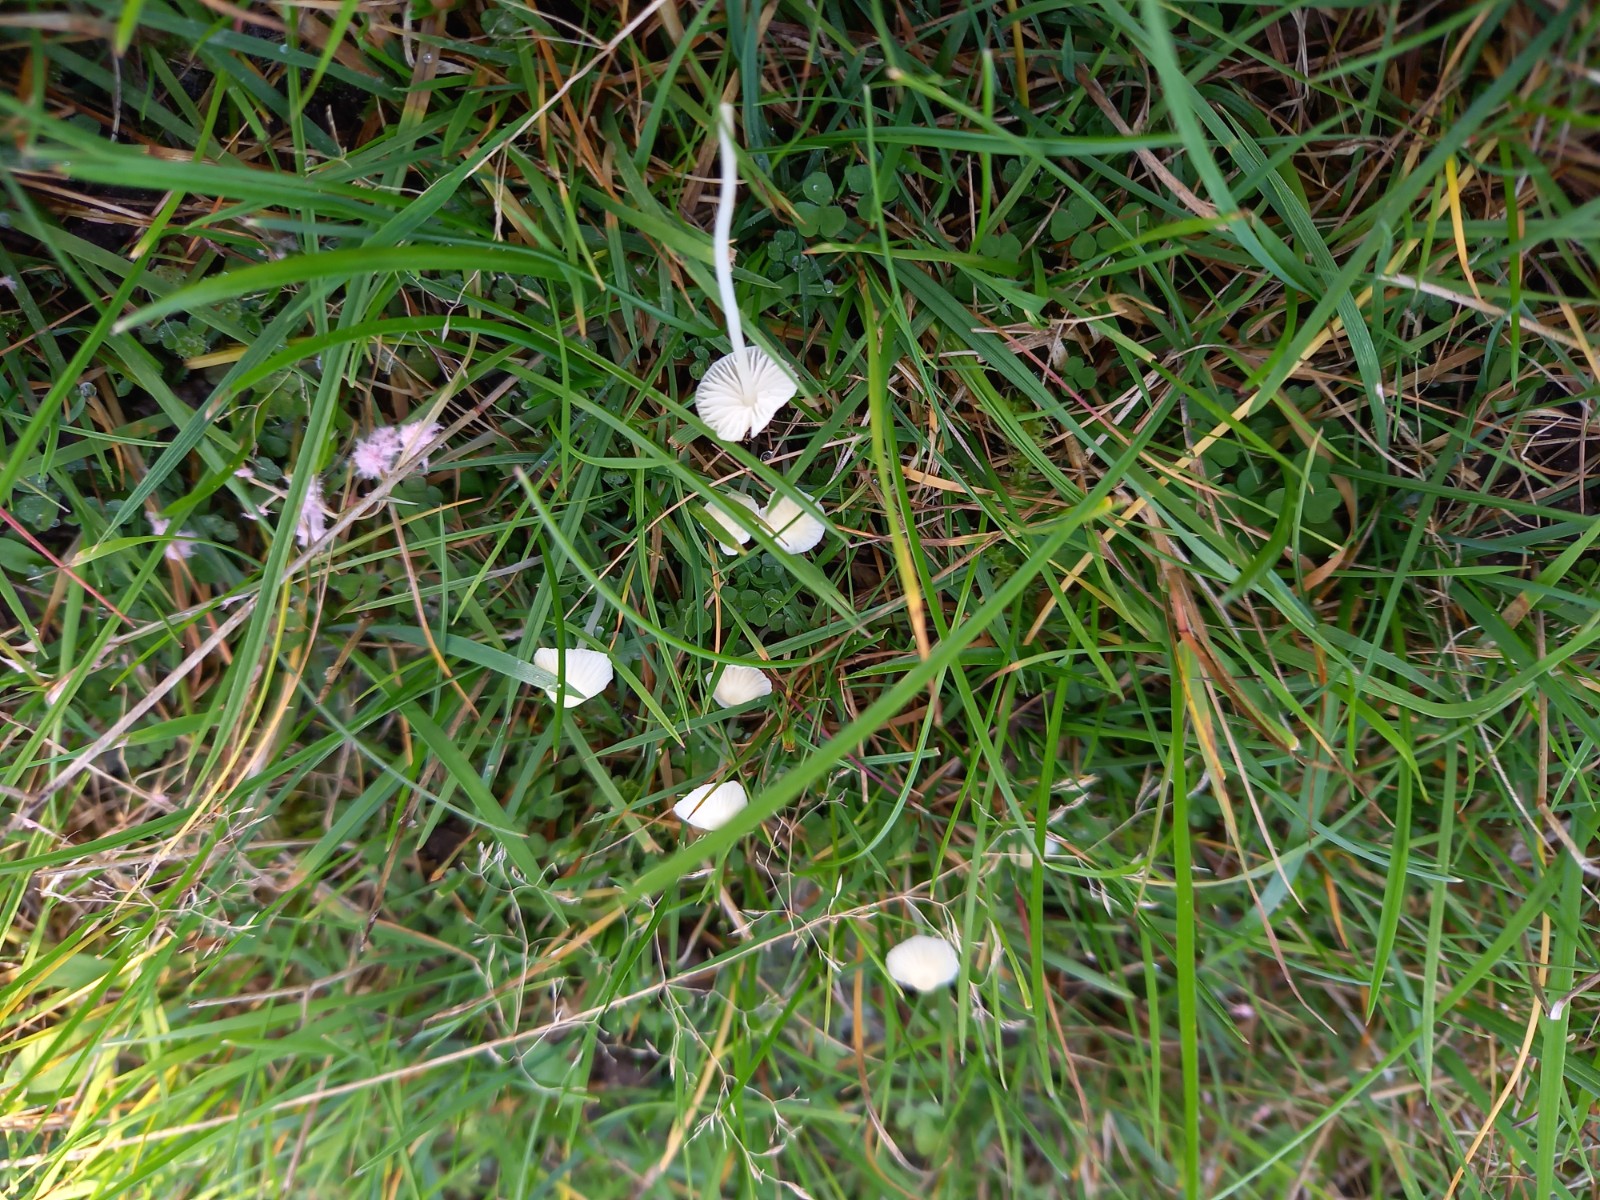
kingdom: Fungi
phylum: Basidiomycota
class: Agaricomycetes
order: Agaricales
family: Mycenaceae
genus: Atheniella
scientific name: Atheniella flavoalba
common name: gulhvid huesvamp
